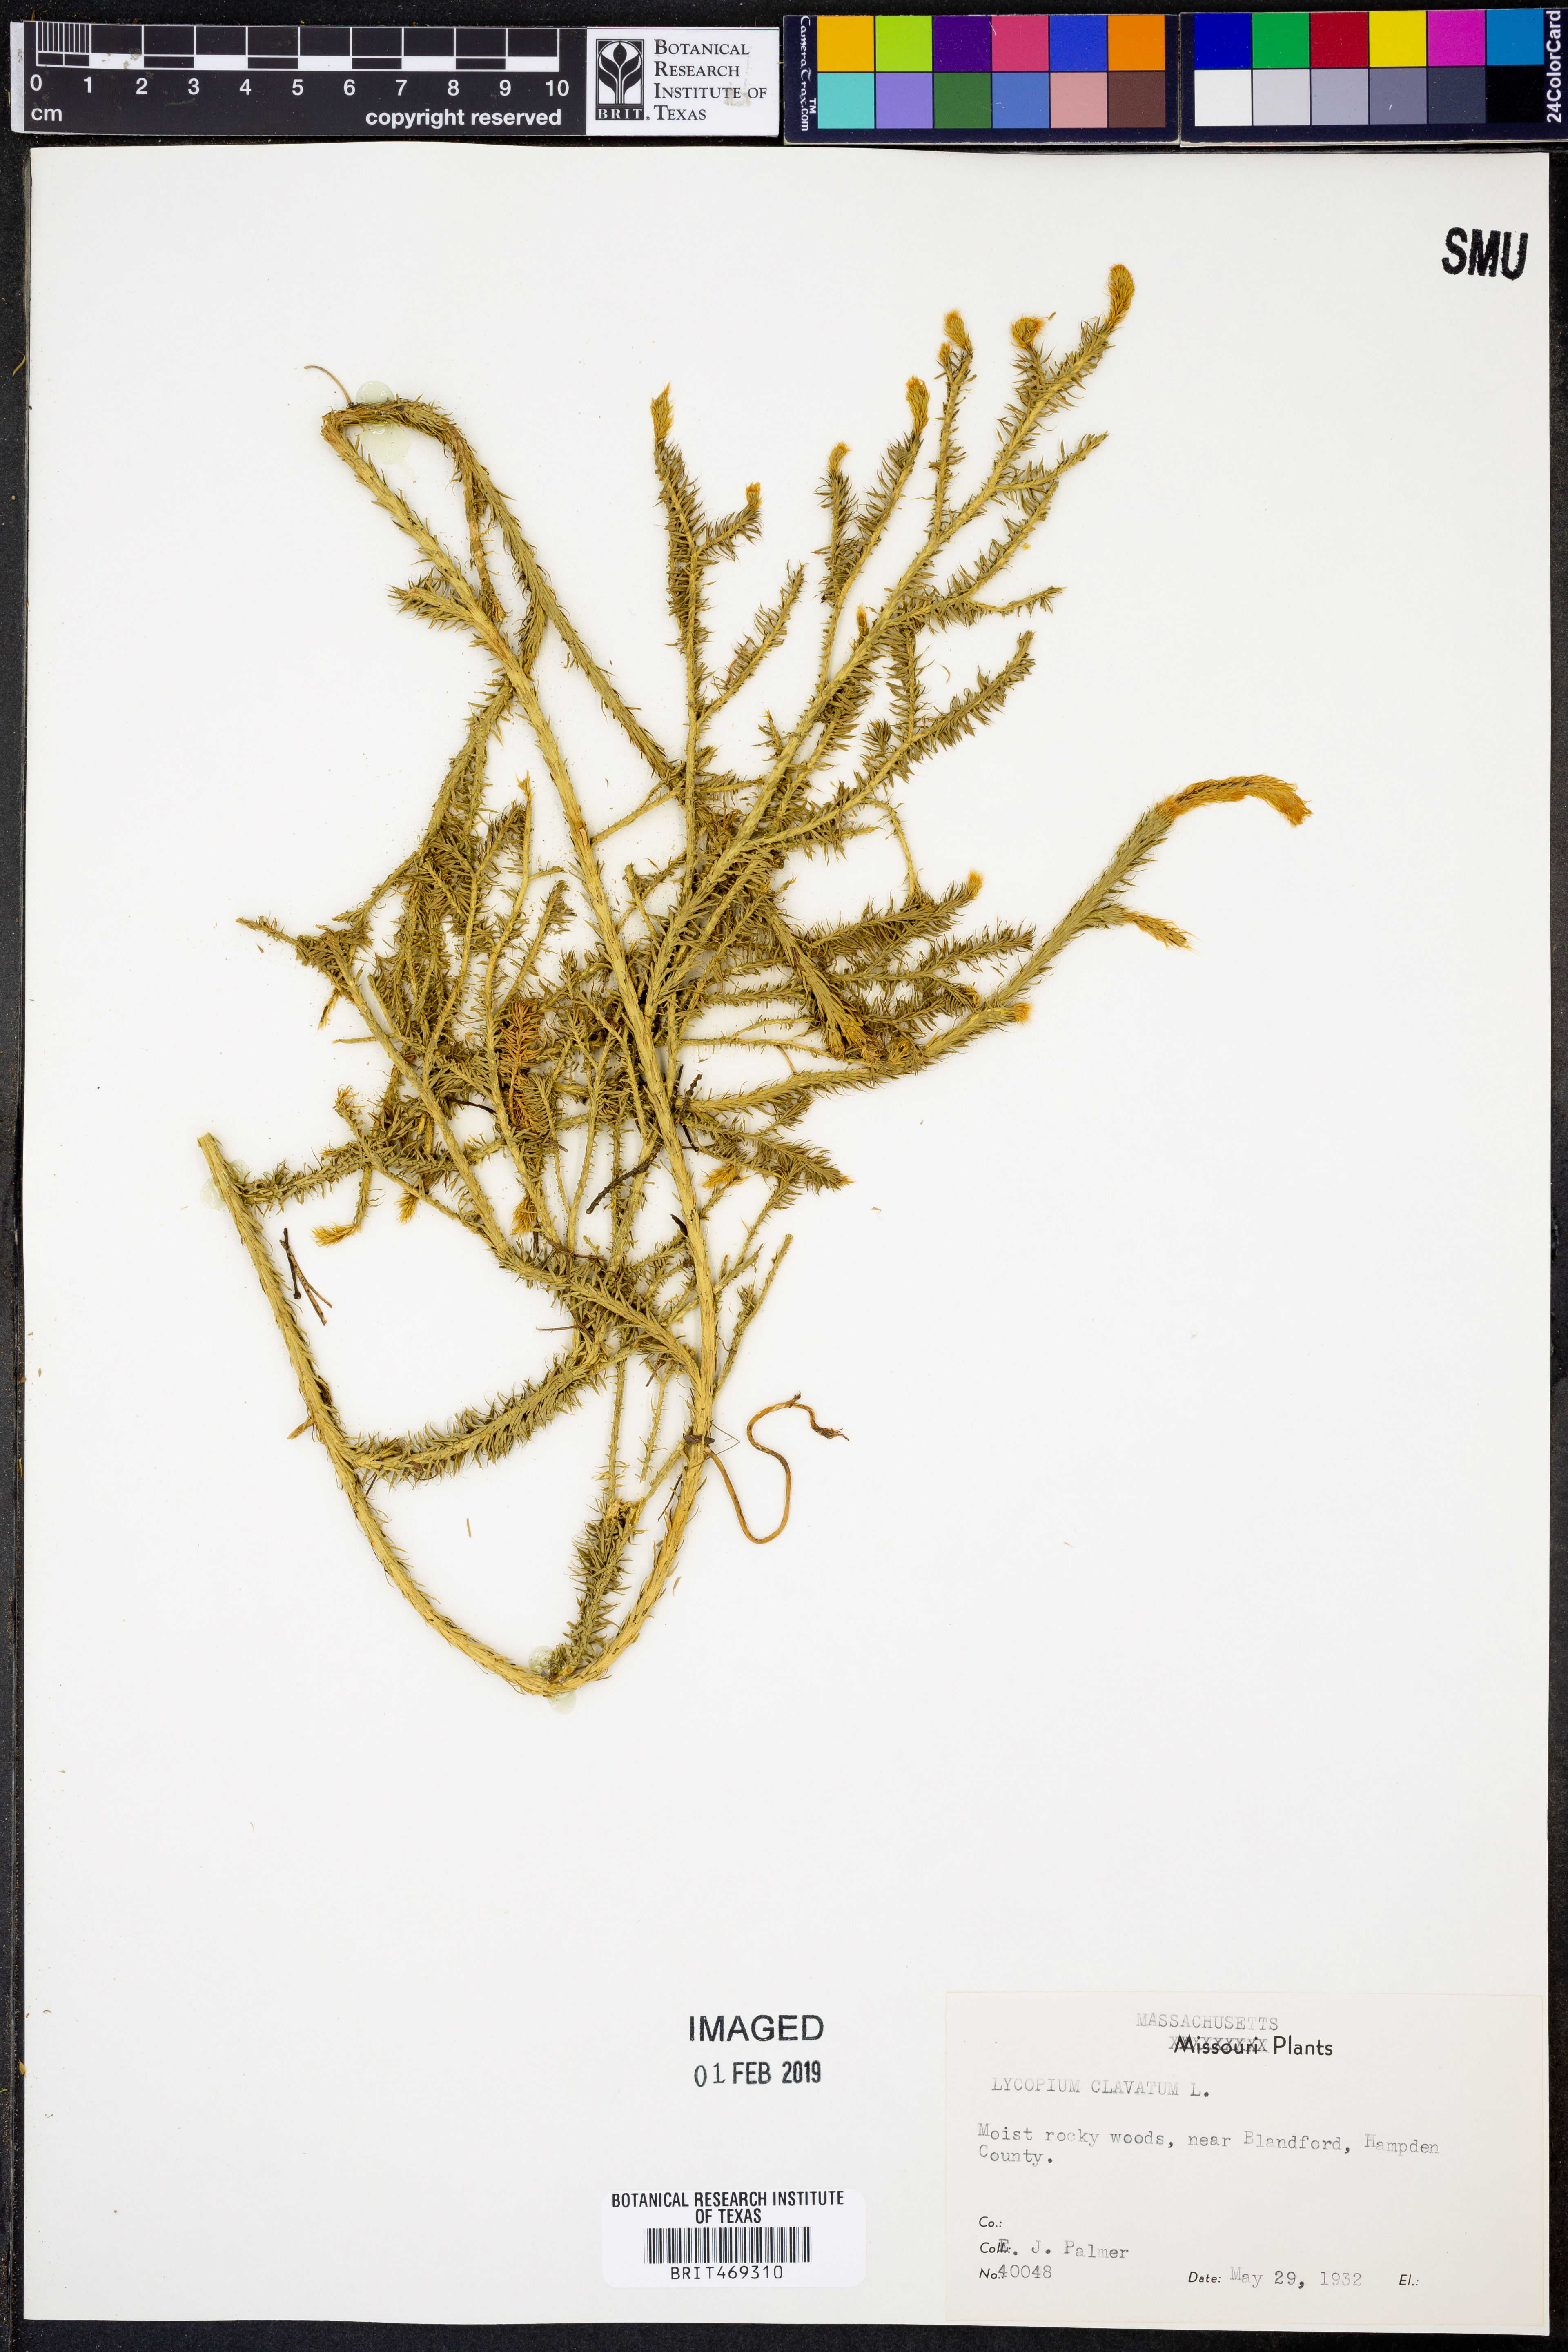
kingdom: Plantae
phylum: Tracheophyta
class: Lycopodiopsida
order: Lycopodiales
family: Lycopodiaceae
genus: Lycopodium
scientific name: Lycopodium clavatum
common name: Stag's-horn clubmoss
